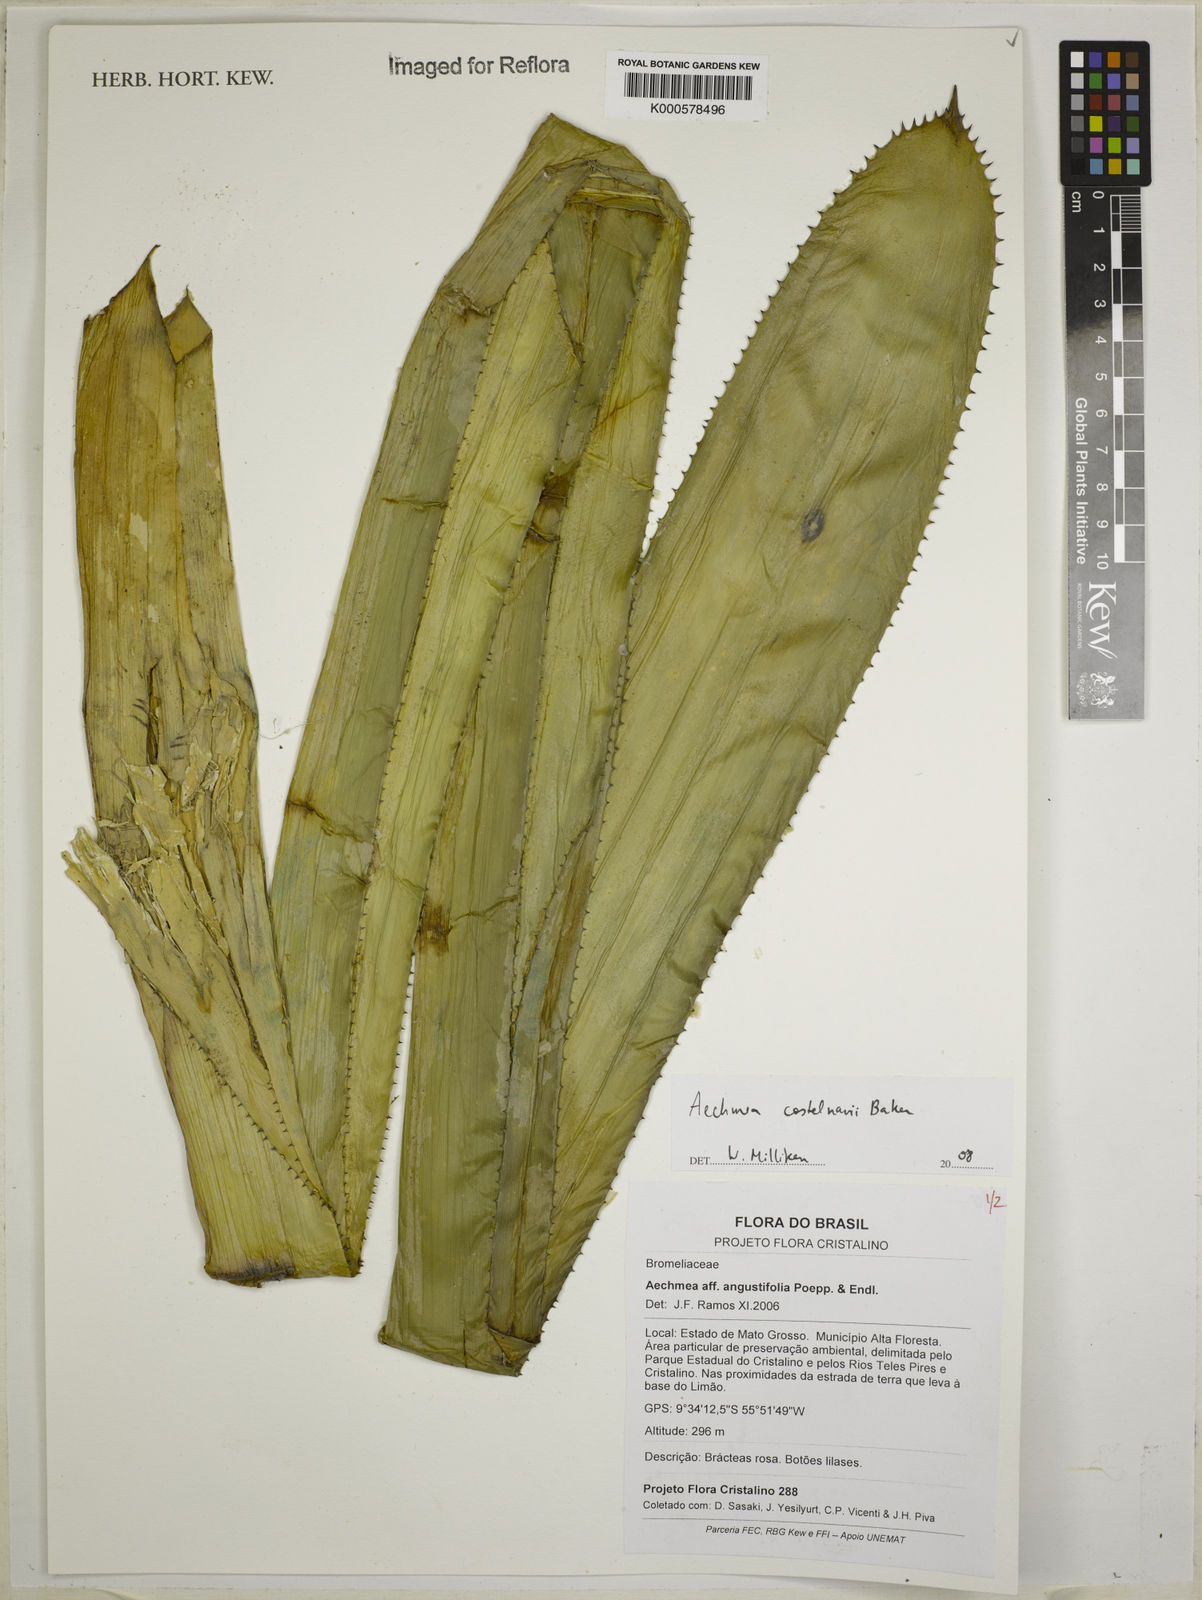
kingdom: Plantae
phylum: Tracheophyta
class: Liliopsida
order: Poales
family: Bromeliaceae
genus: Aechmea
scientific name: Aechmea castelnavii
